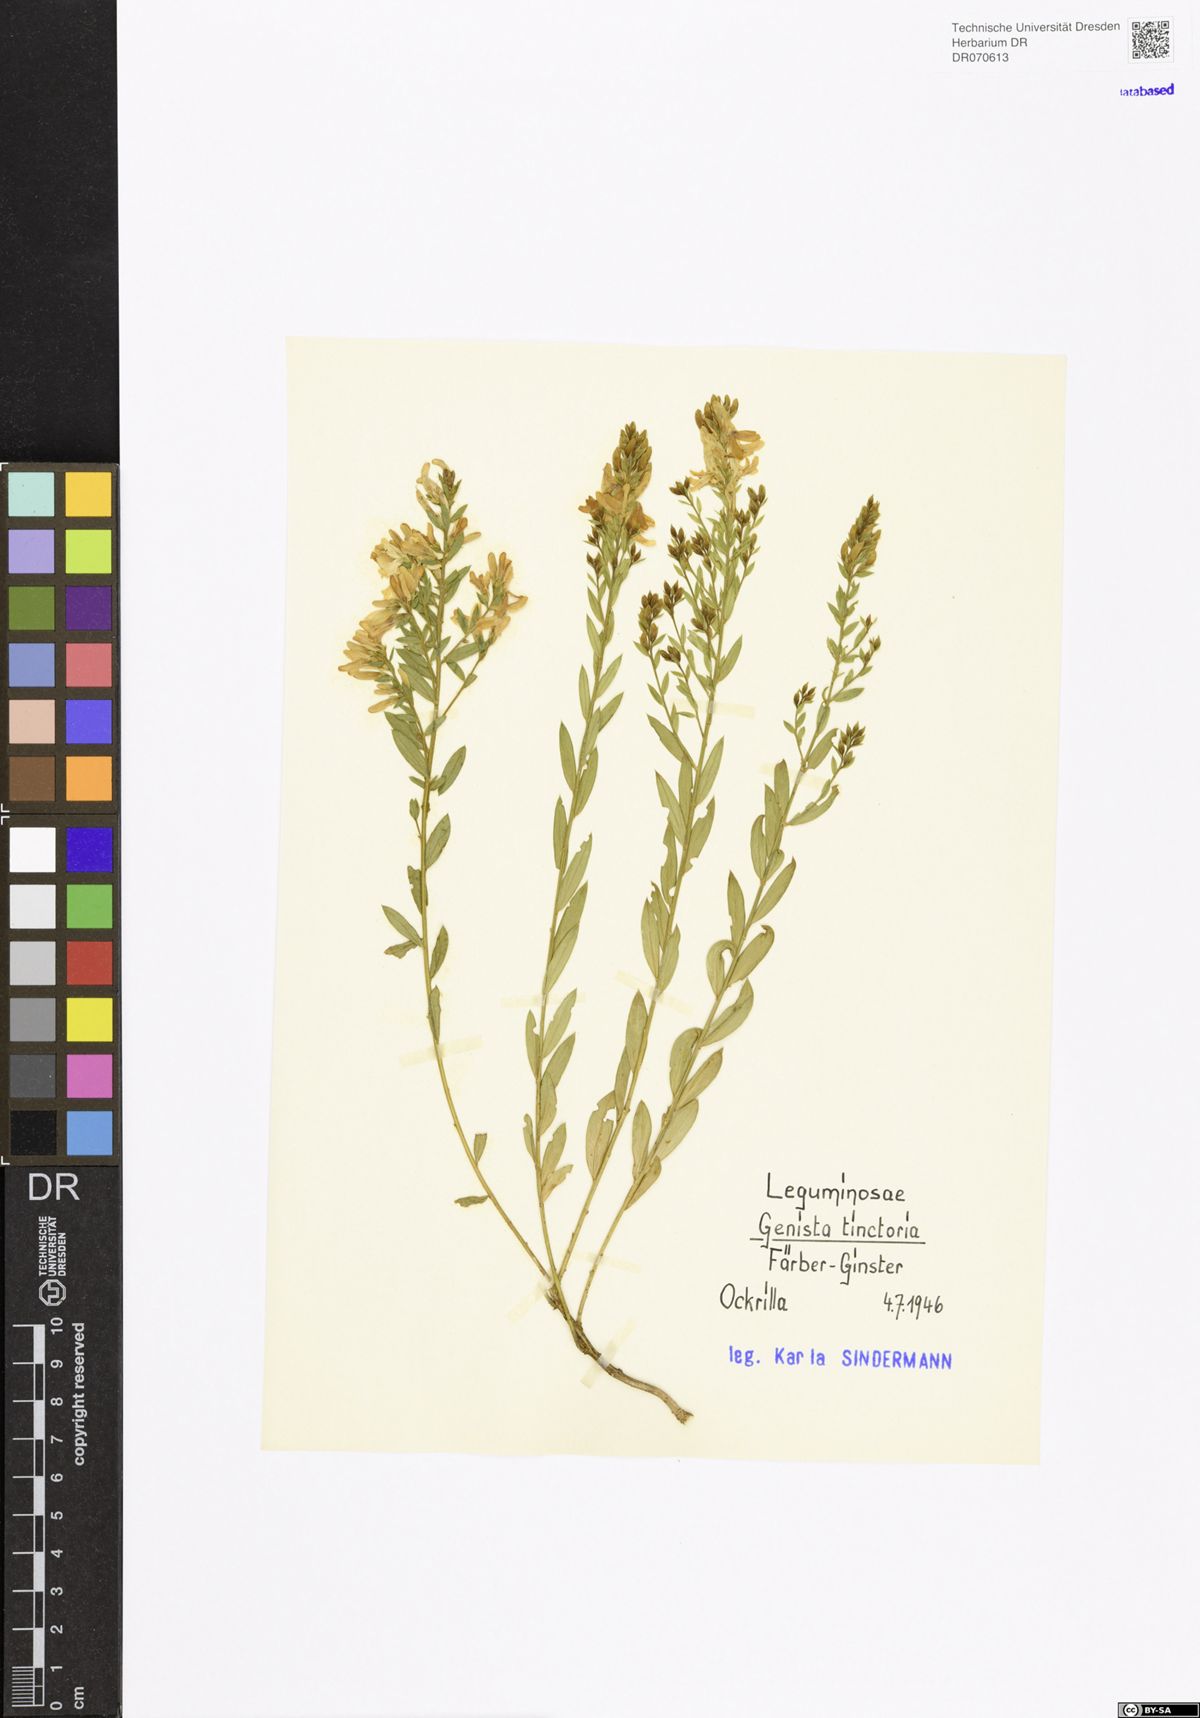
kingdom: Plantae
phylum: Tracheophyta
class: Magnoliopsida
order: Fabales
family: Fabaceae
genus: Genista
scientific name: Genista tinctoria
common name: Dyer's greenweed
